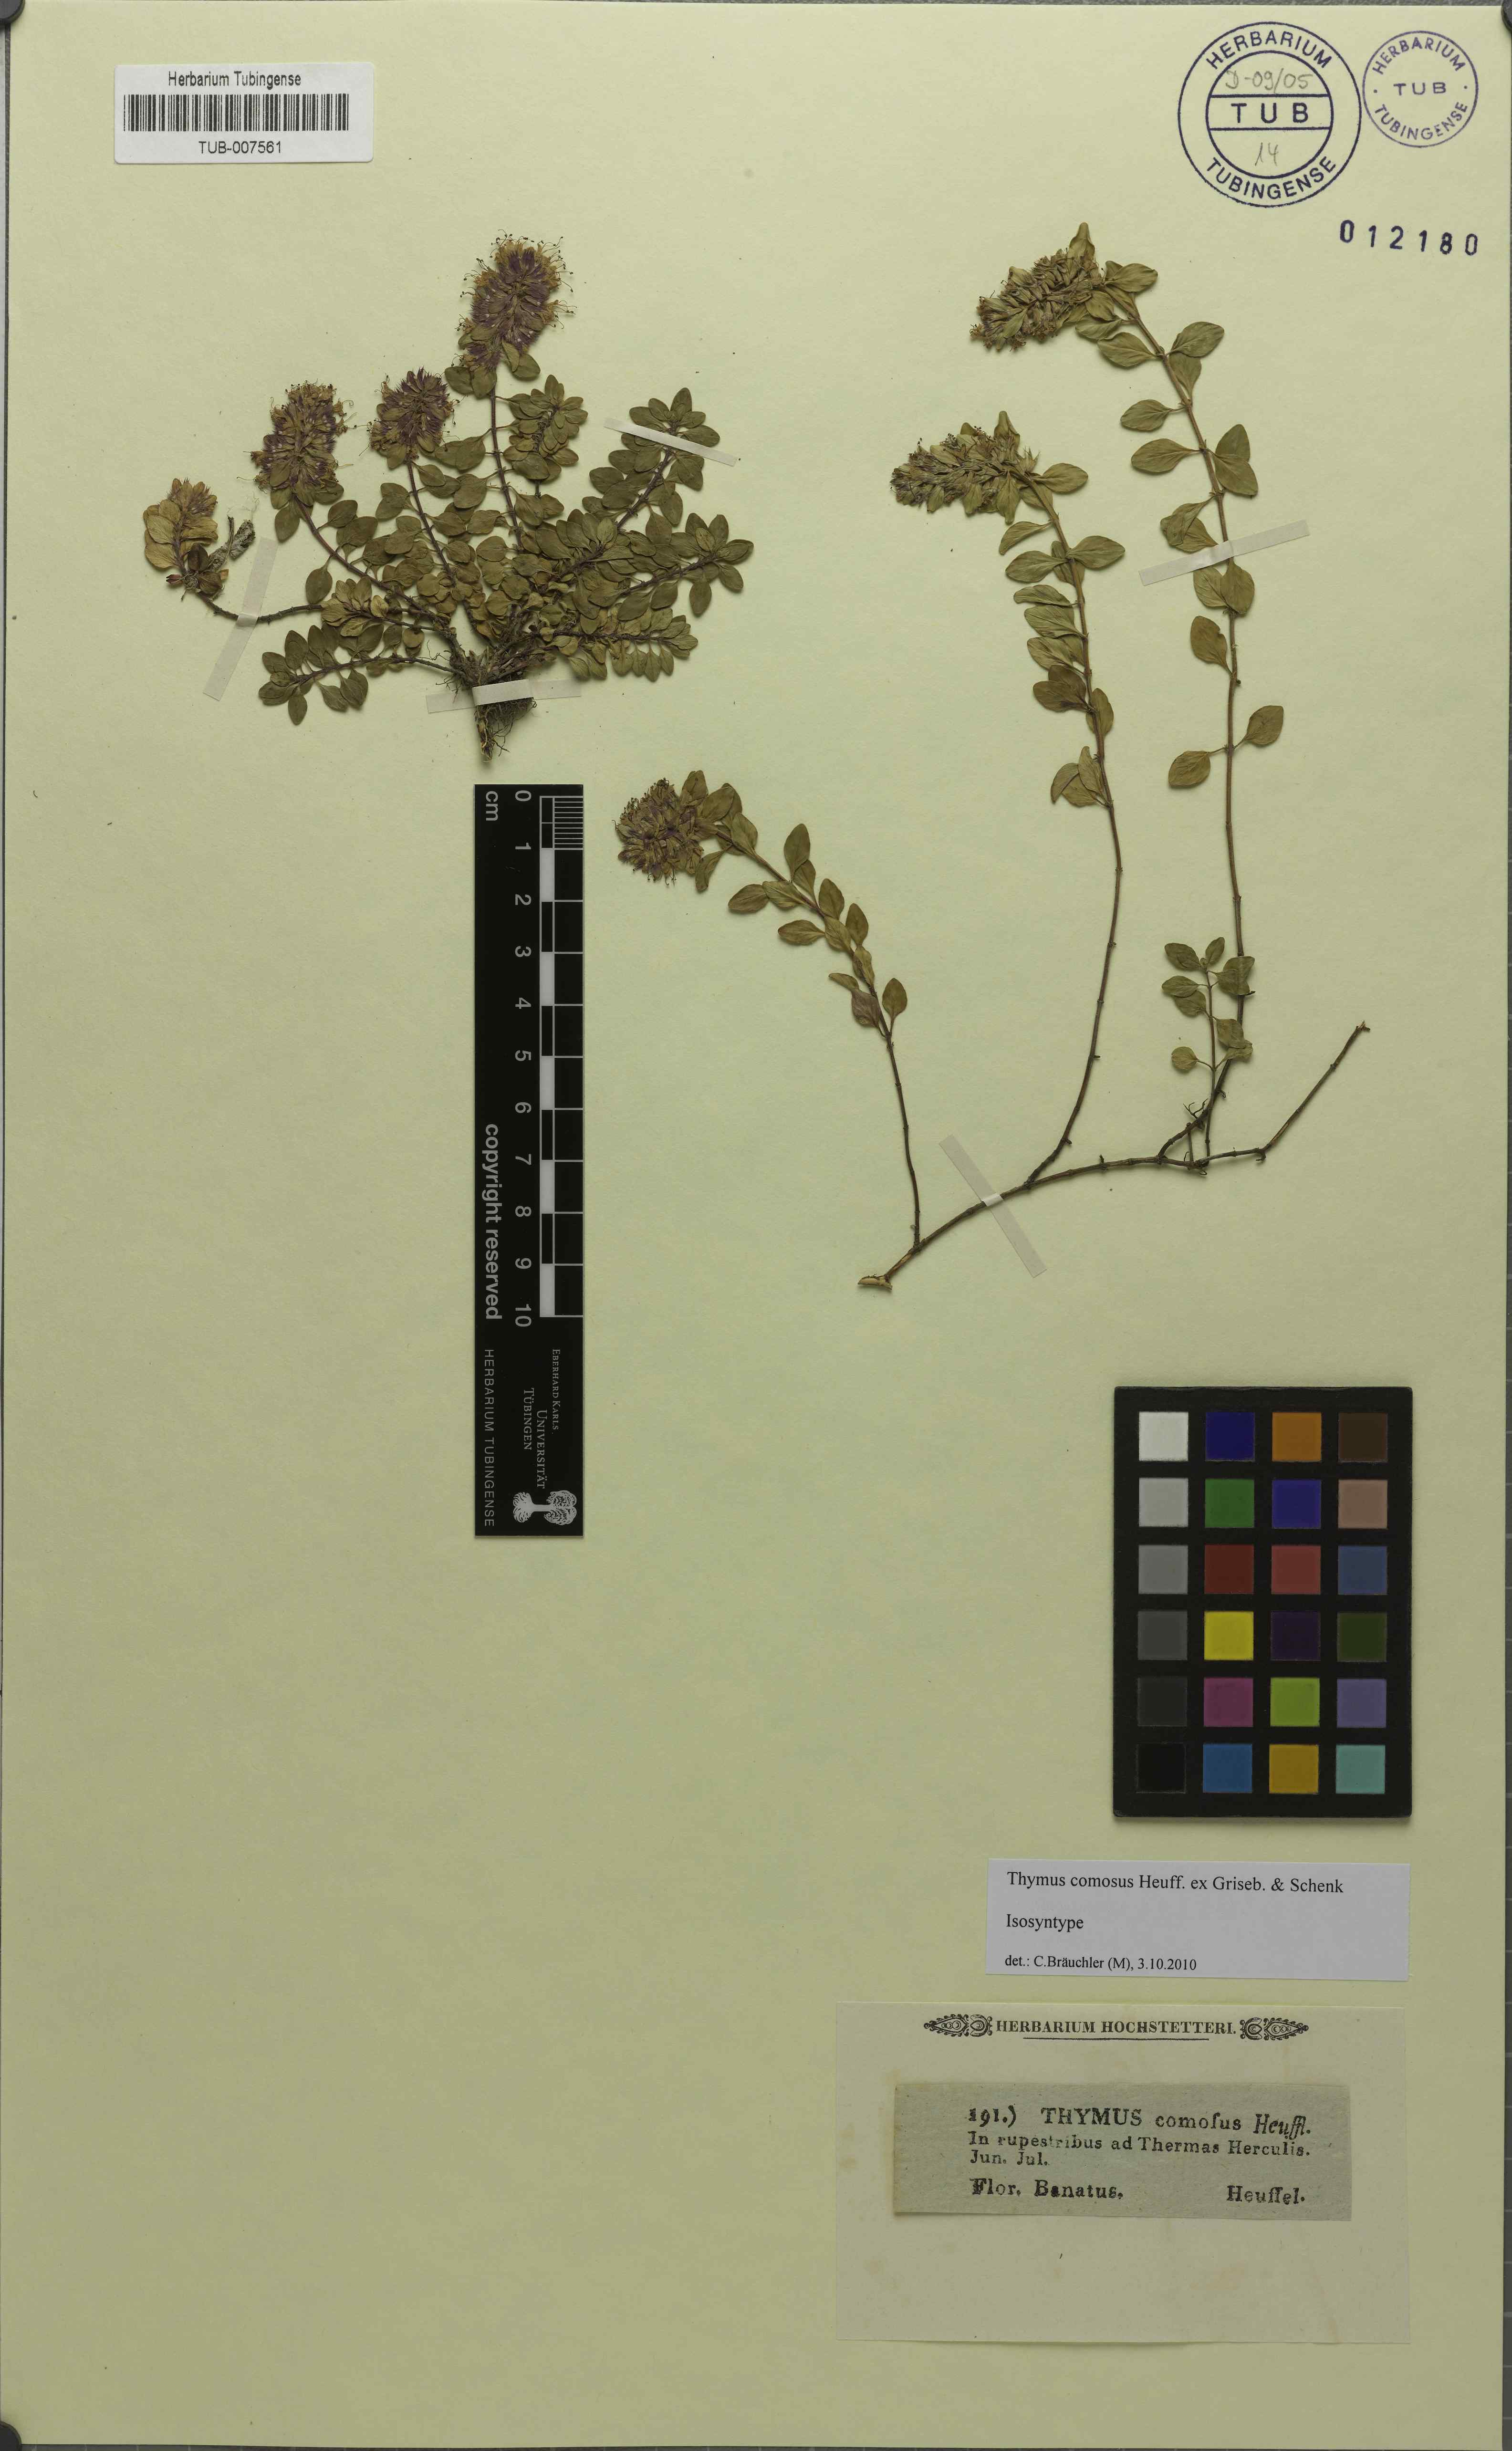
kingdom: Plantae
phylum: Tracheophyta
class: Magnoliopsida
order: Lamiales
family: Lamiaceae
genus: Thymus
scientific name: Thymus comosus
